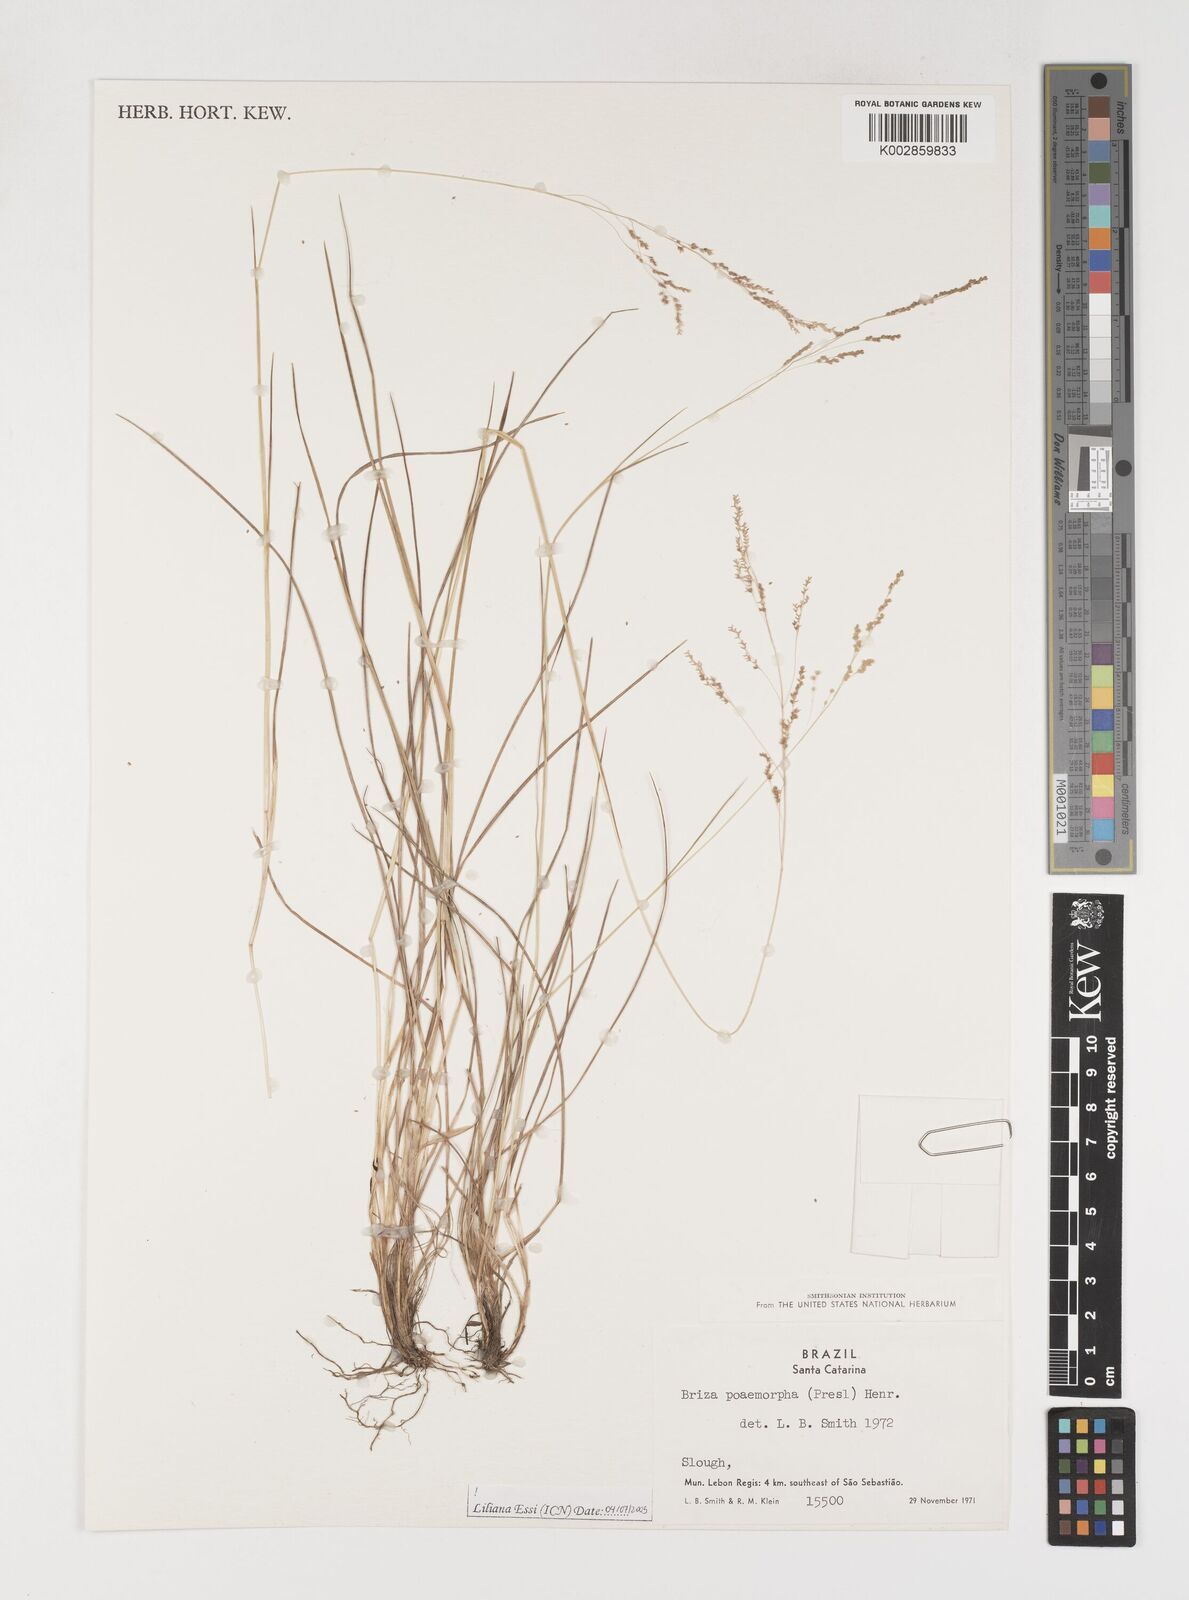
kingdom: Plantae
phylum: Tracheophyta
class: Liliopsida
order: Poales
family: Poaceae
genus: Microbriza
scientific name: Microbriza poimorpha
